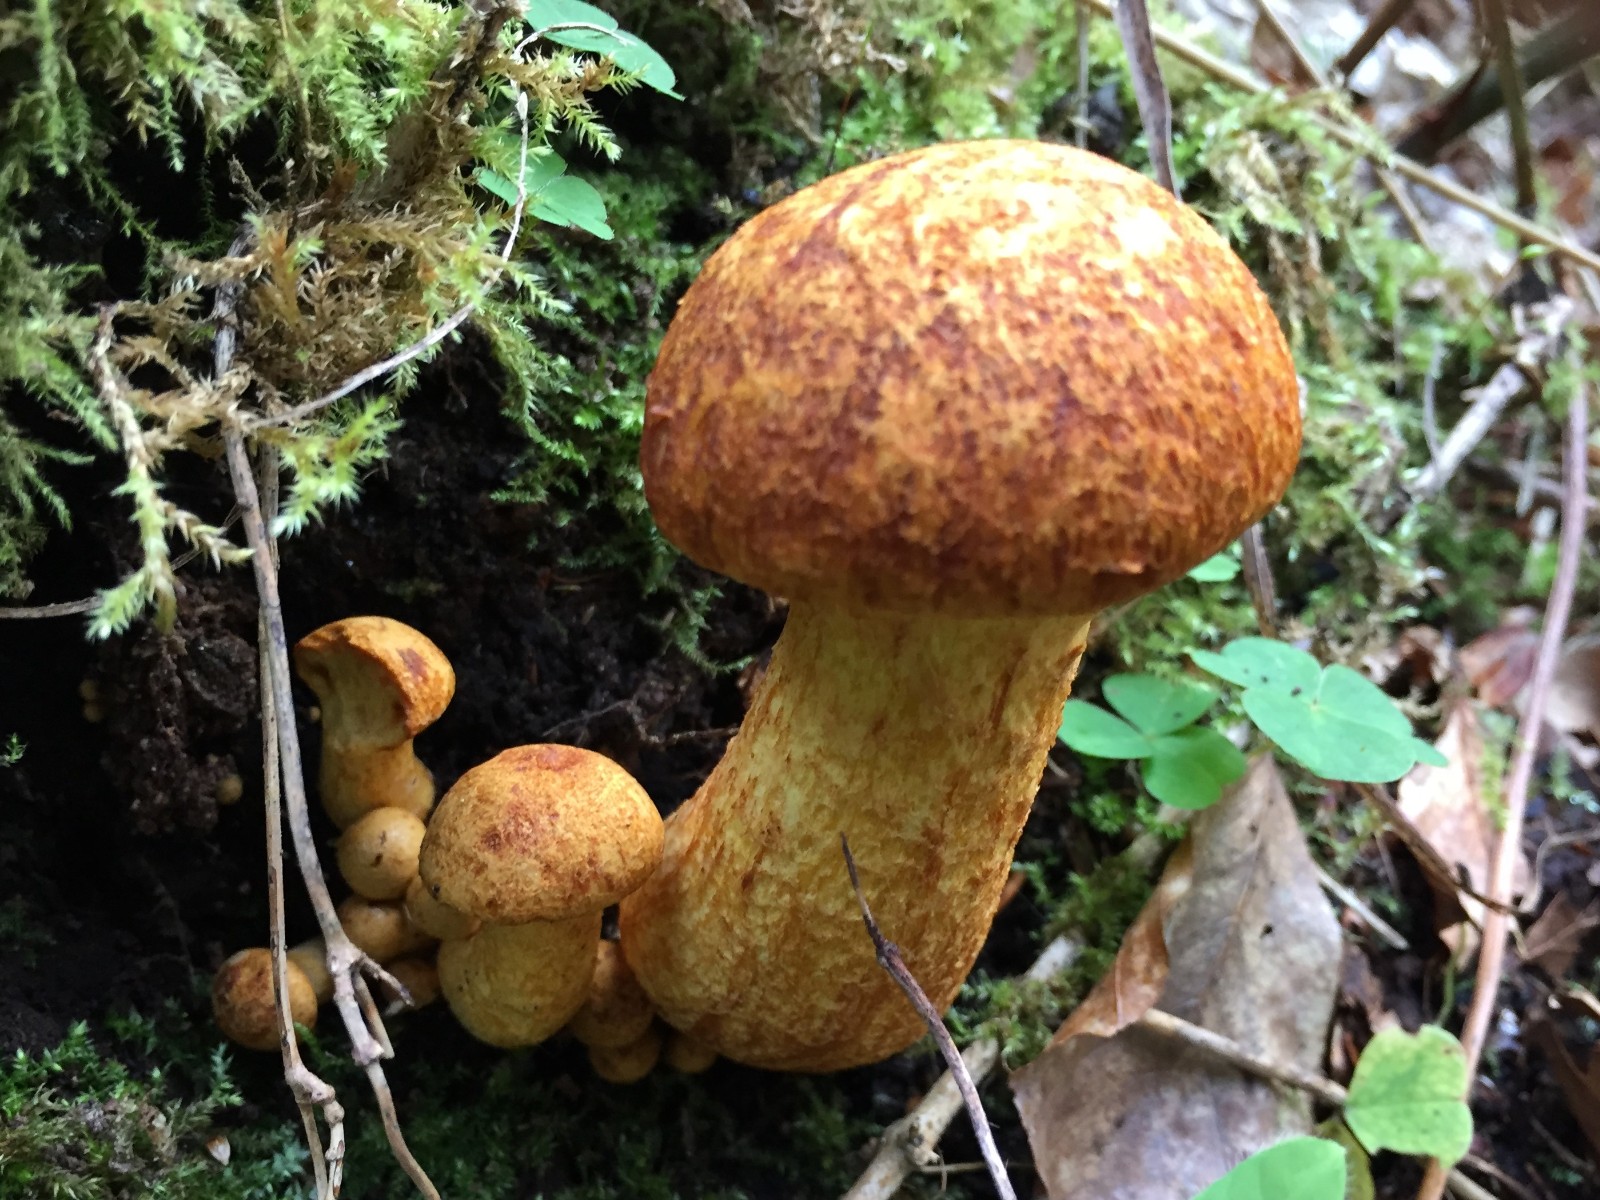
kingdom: Fungi
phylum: Basidiomycota
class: Agaricomycetes
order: Agaricales
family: Hymenogastraceae
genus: Gymnopilus
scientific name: Gymnopilus spectabilis
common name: fibret flammehat
